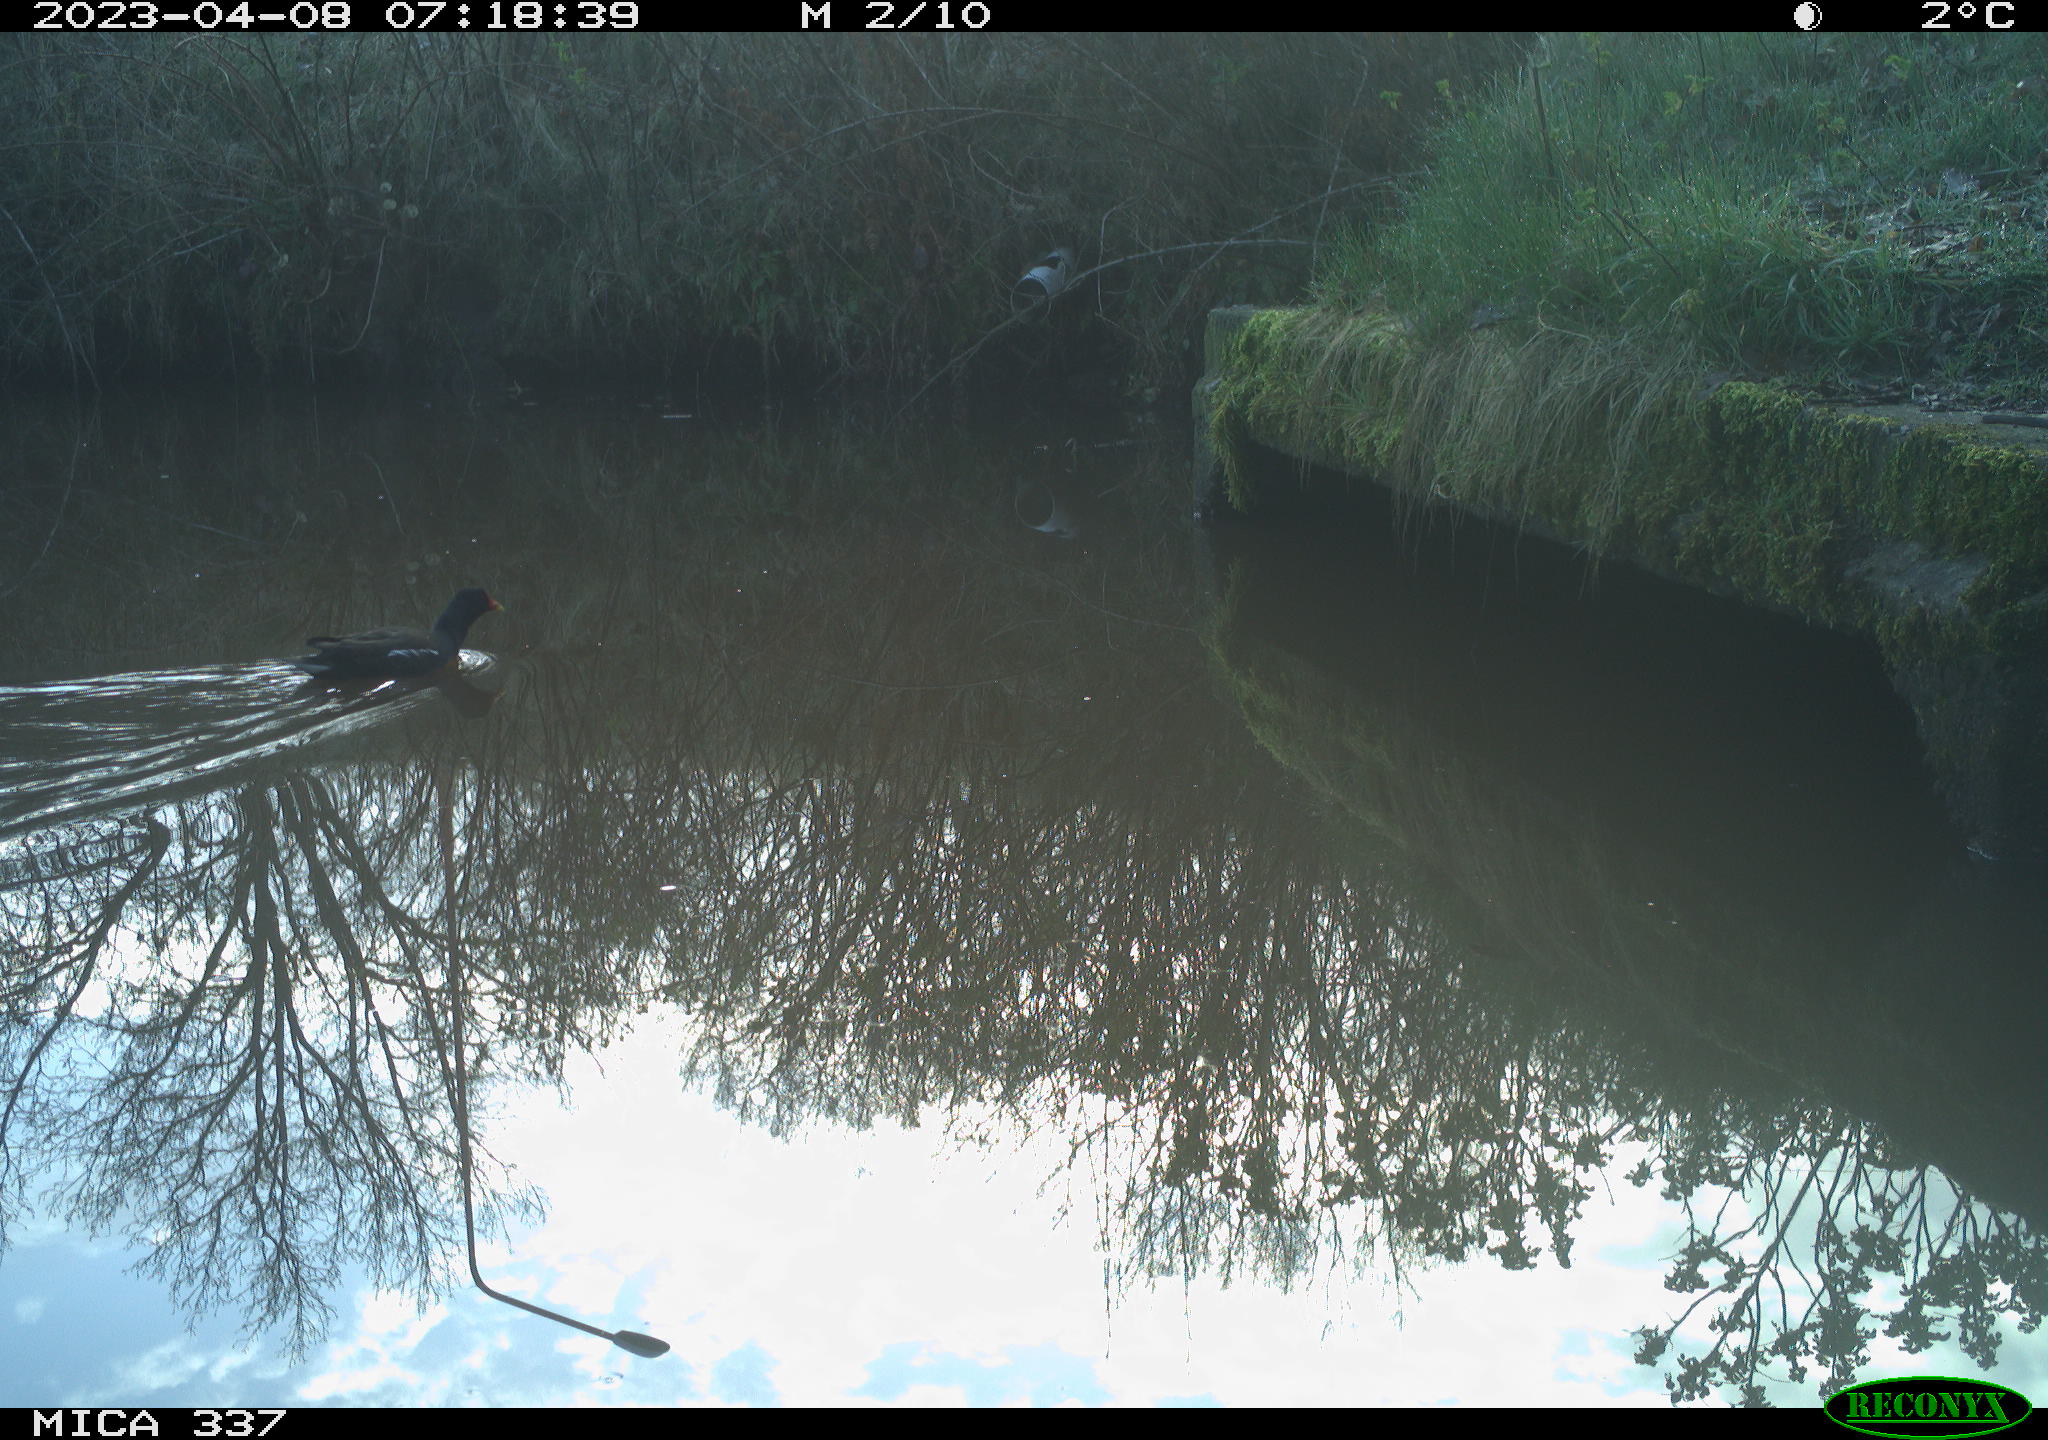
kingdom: Animalia
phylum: Chordata
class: Aves
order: Gruiformes
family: Rallidae
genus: Gallinula
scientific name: Gallinula chloropus
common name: Common moorhen
